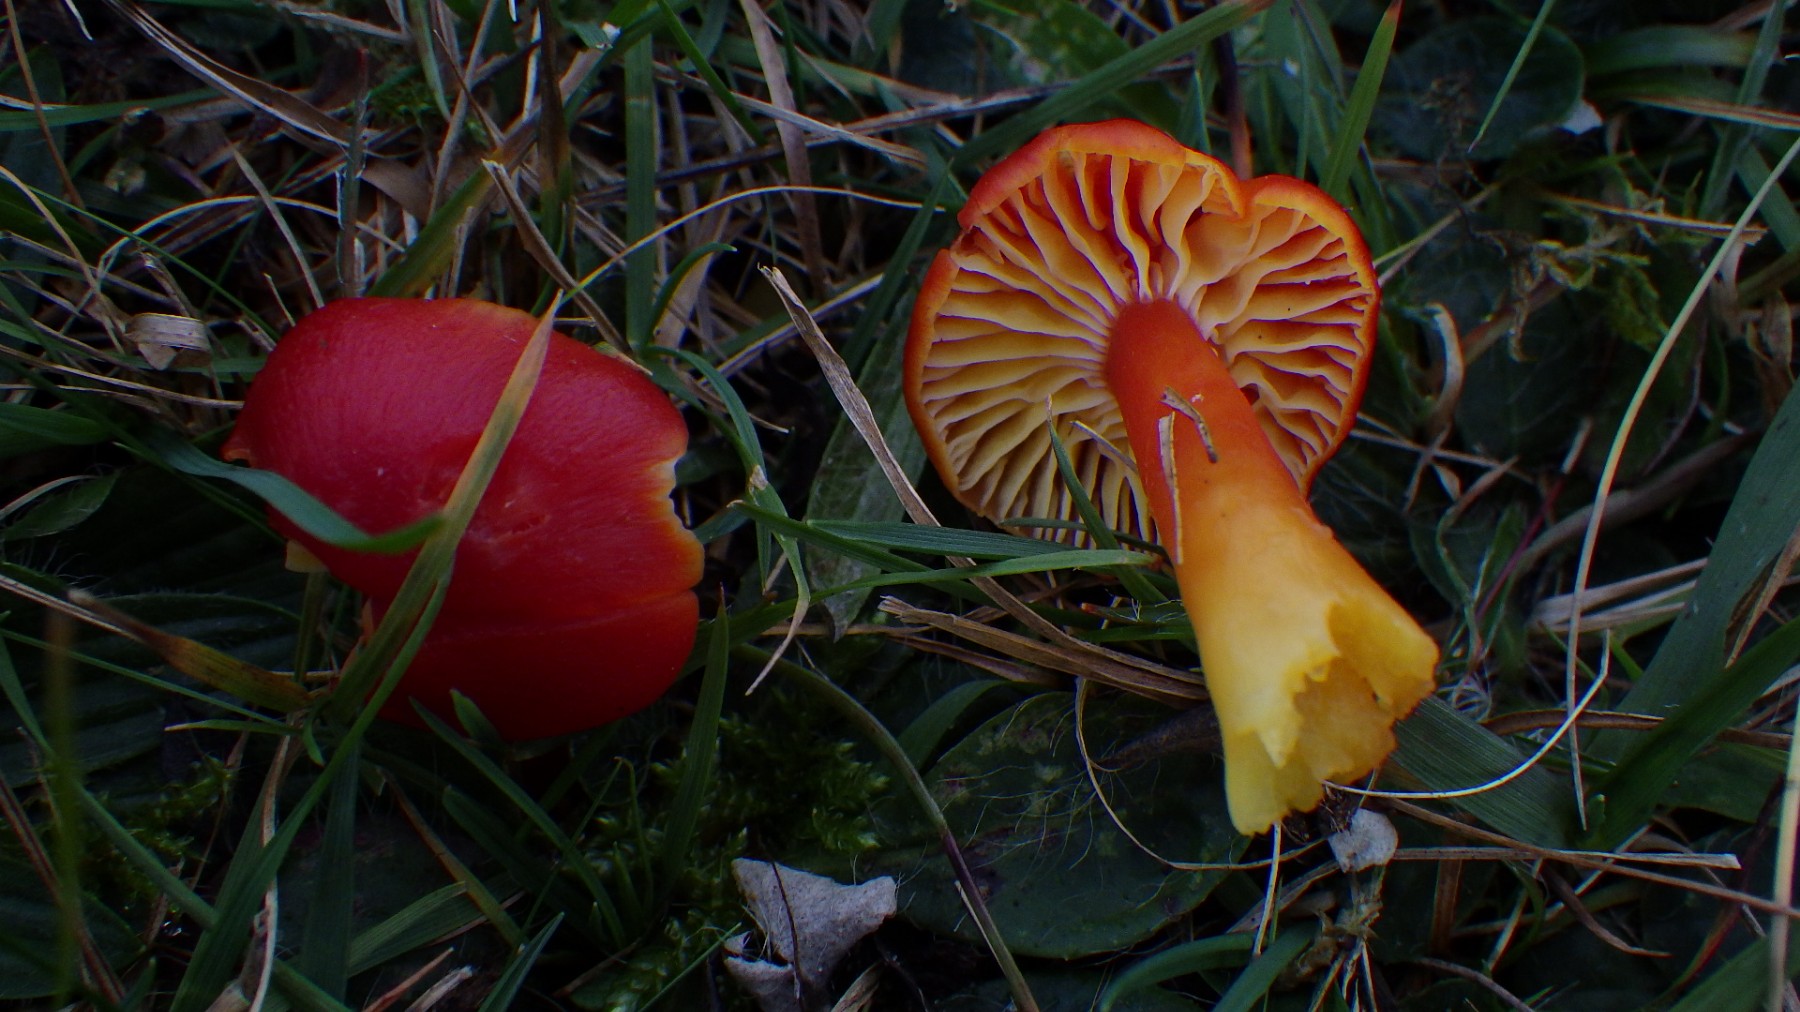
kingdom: Fungi
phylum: Basidiomycota
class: Agaricomycetes
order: Agaricales
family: Hygrophoraceae
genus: Hygrocybe
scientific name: Hygrocybe coccinea
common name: cinnober-vokshat
